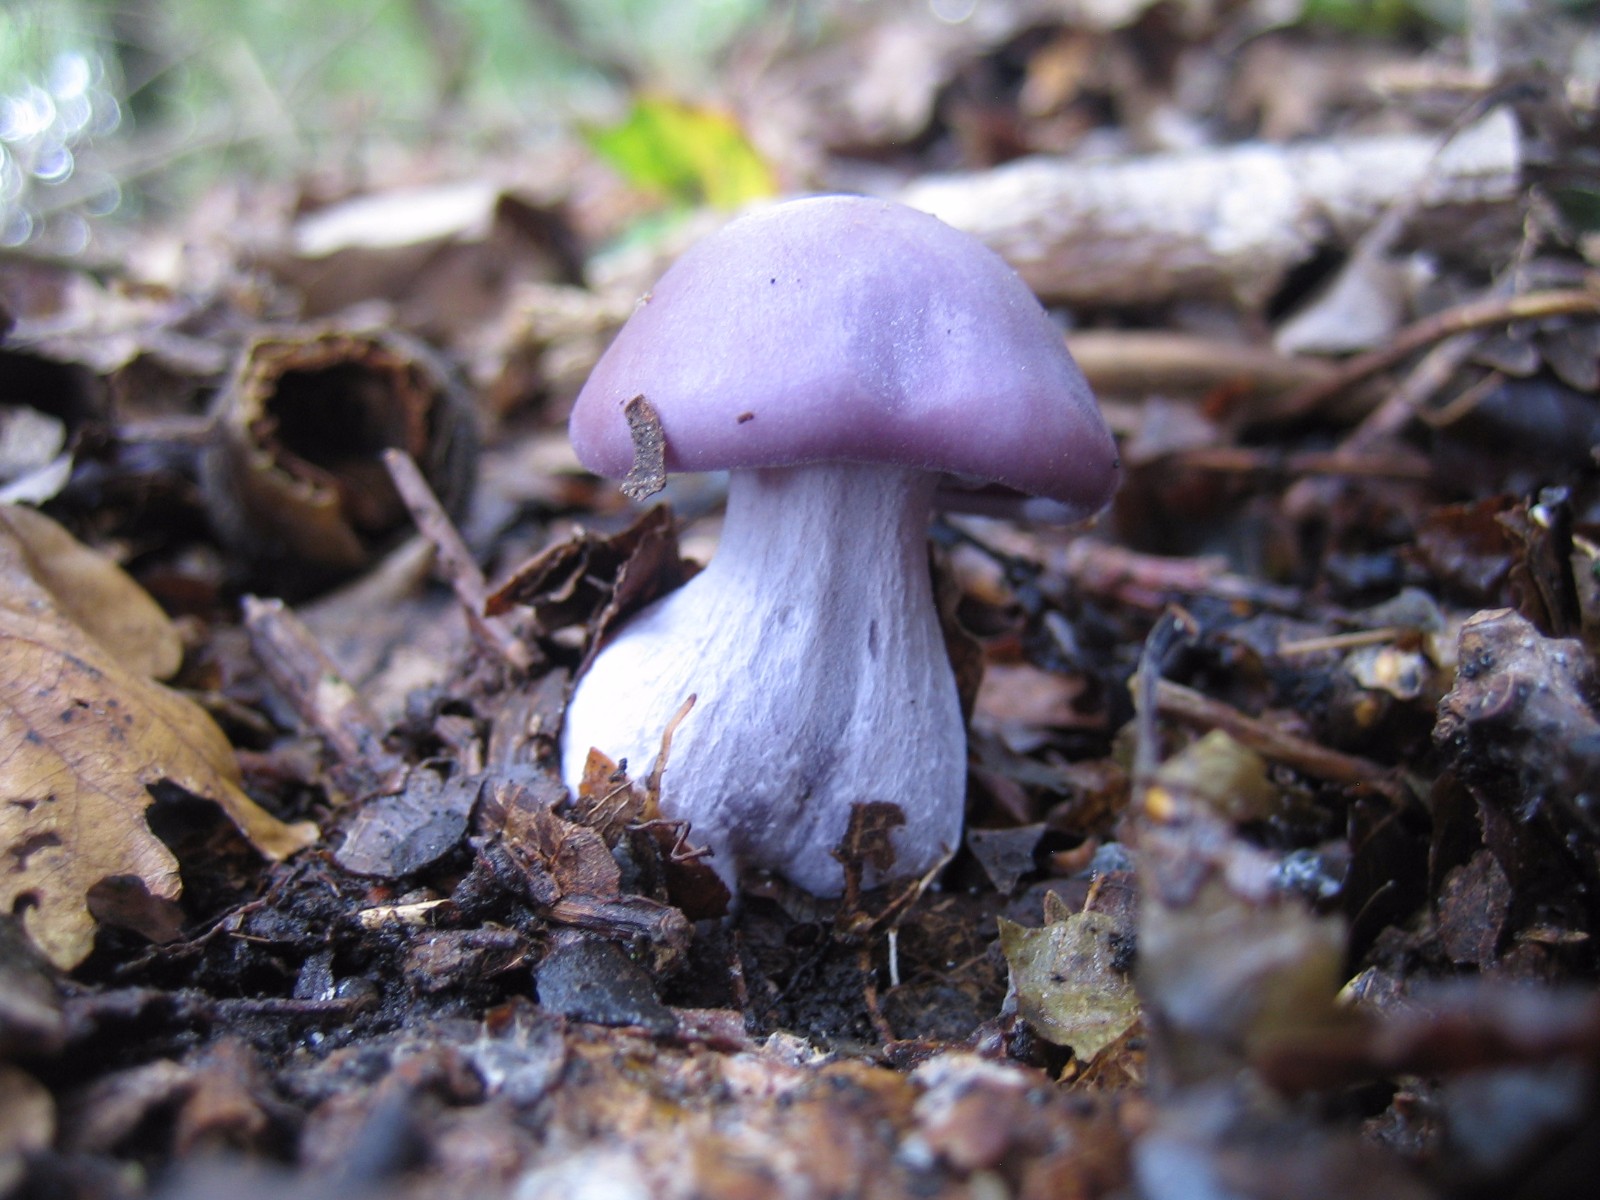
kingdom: Fungi
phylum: Basidiomycota
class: Agaricomycetes
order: Agaricales
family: Tricholomataceae
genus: Lepista
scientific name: Lepista nuda
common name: violet hekseringshat
